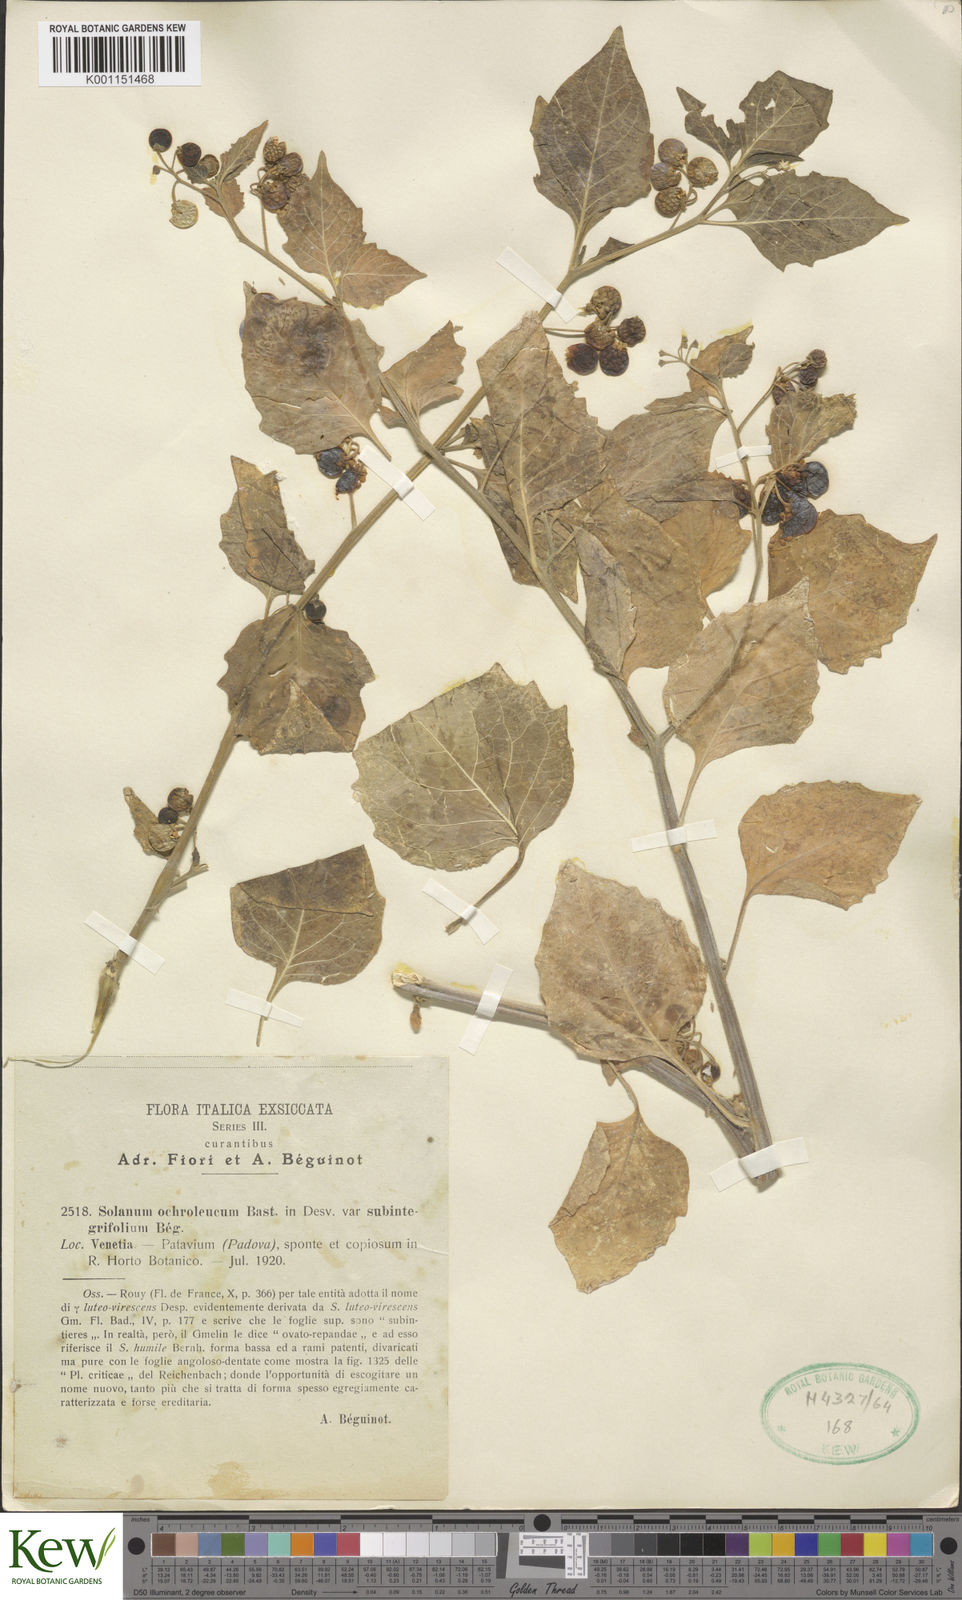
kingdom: Plantae
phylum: Tracheophyta
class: Magnoliopsida
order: Solanales
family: Solanaceae
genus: Solanum
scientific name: Solanum villosum
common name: Red nightshade
